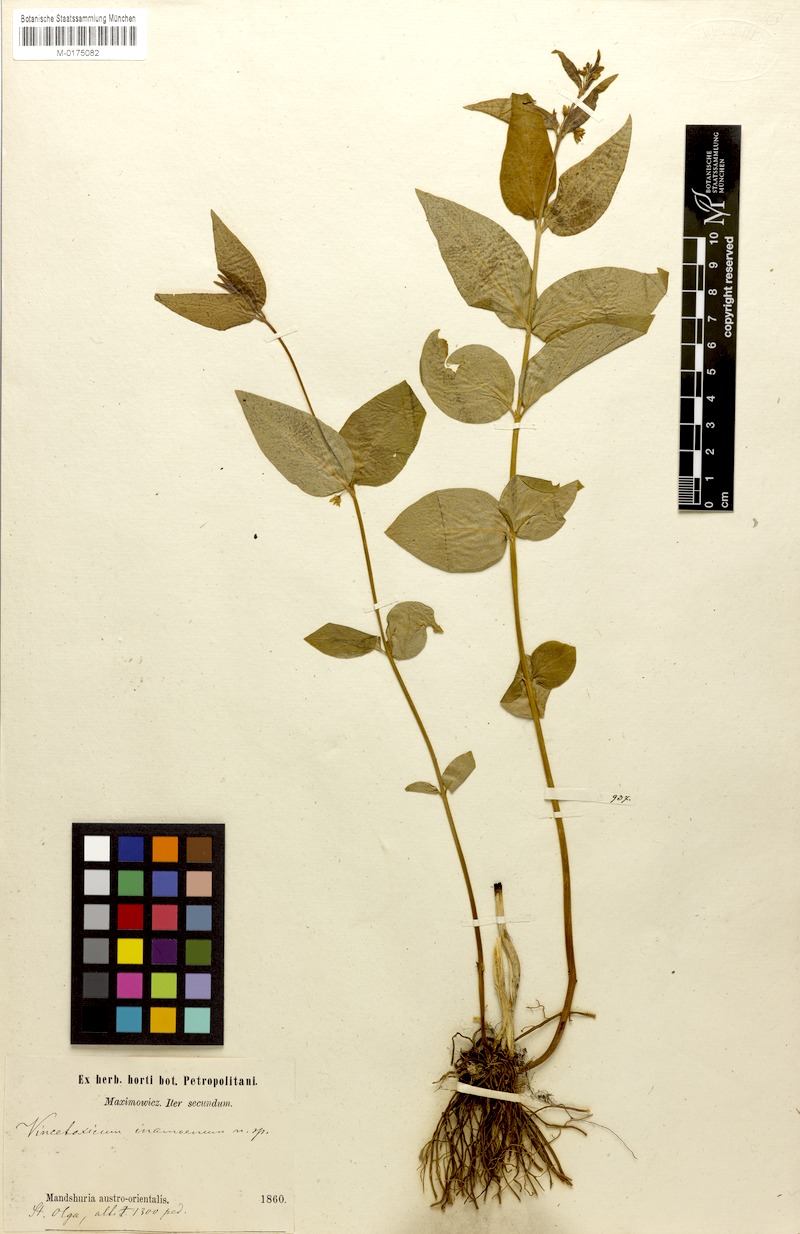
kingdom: Plantae
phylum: Tracheophyta
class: Magnoliopsida
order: Gentianales
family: Apocynaceae
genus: Vincetoxicum
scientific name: Vincetoxicum inamoenum
